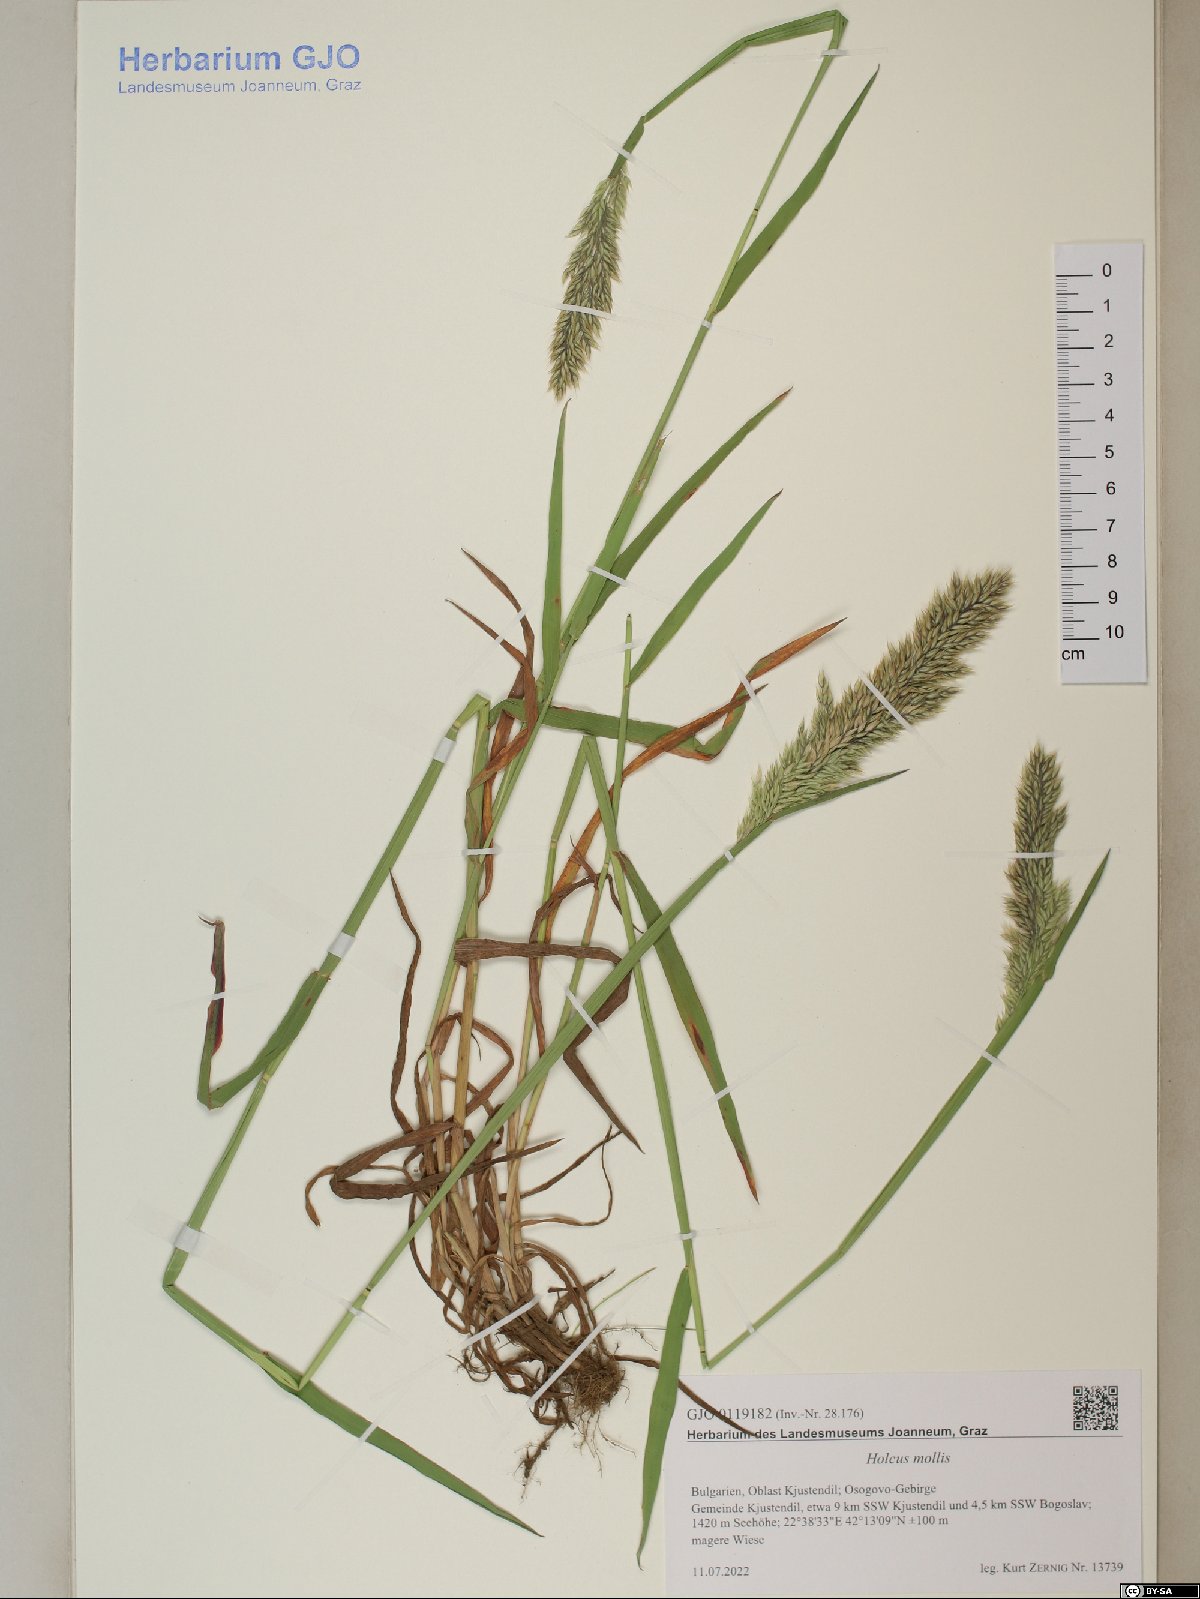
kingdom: Plantae
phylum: Tracheophyta
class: Liliopsida
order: Poales
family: Poaceae
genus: Holcus
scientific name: Holcus mollis
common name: Creeping velvetgrass
